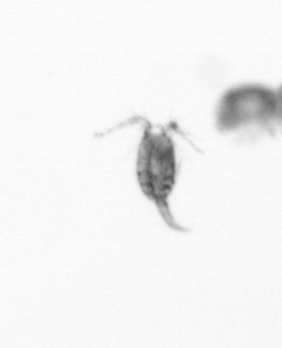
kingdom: Animalia
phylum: Arthropoda
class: Copepoda
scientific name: Copepoda
